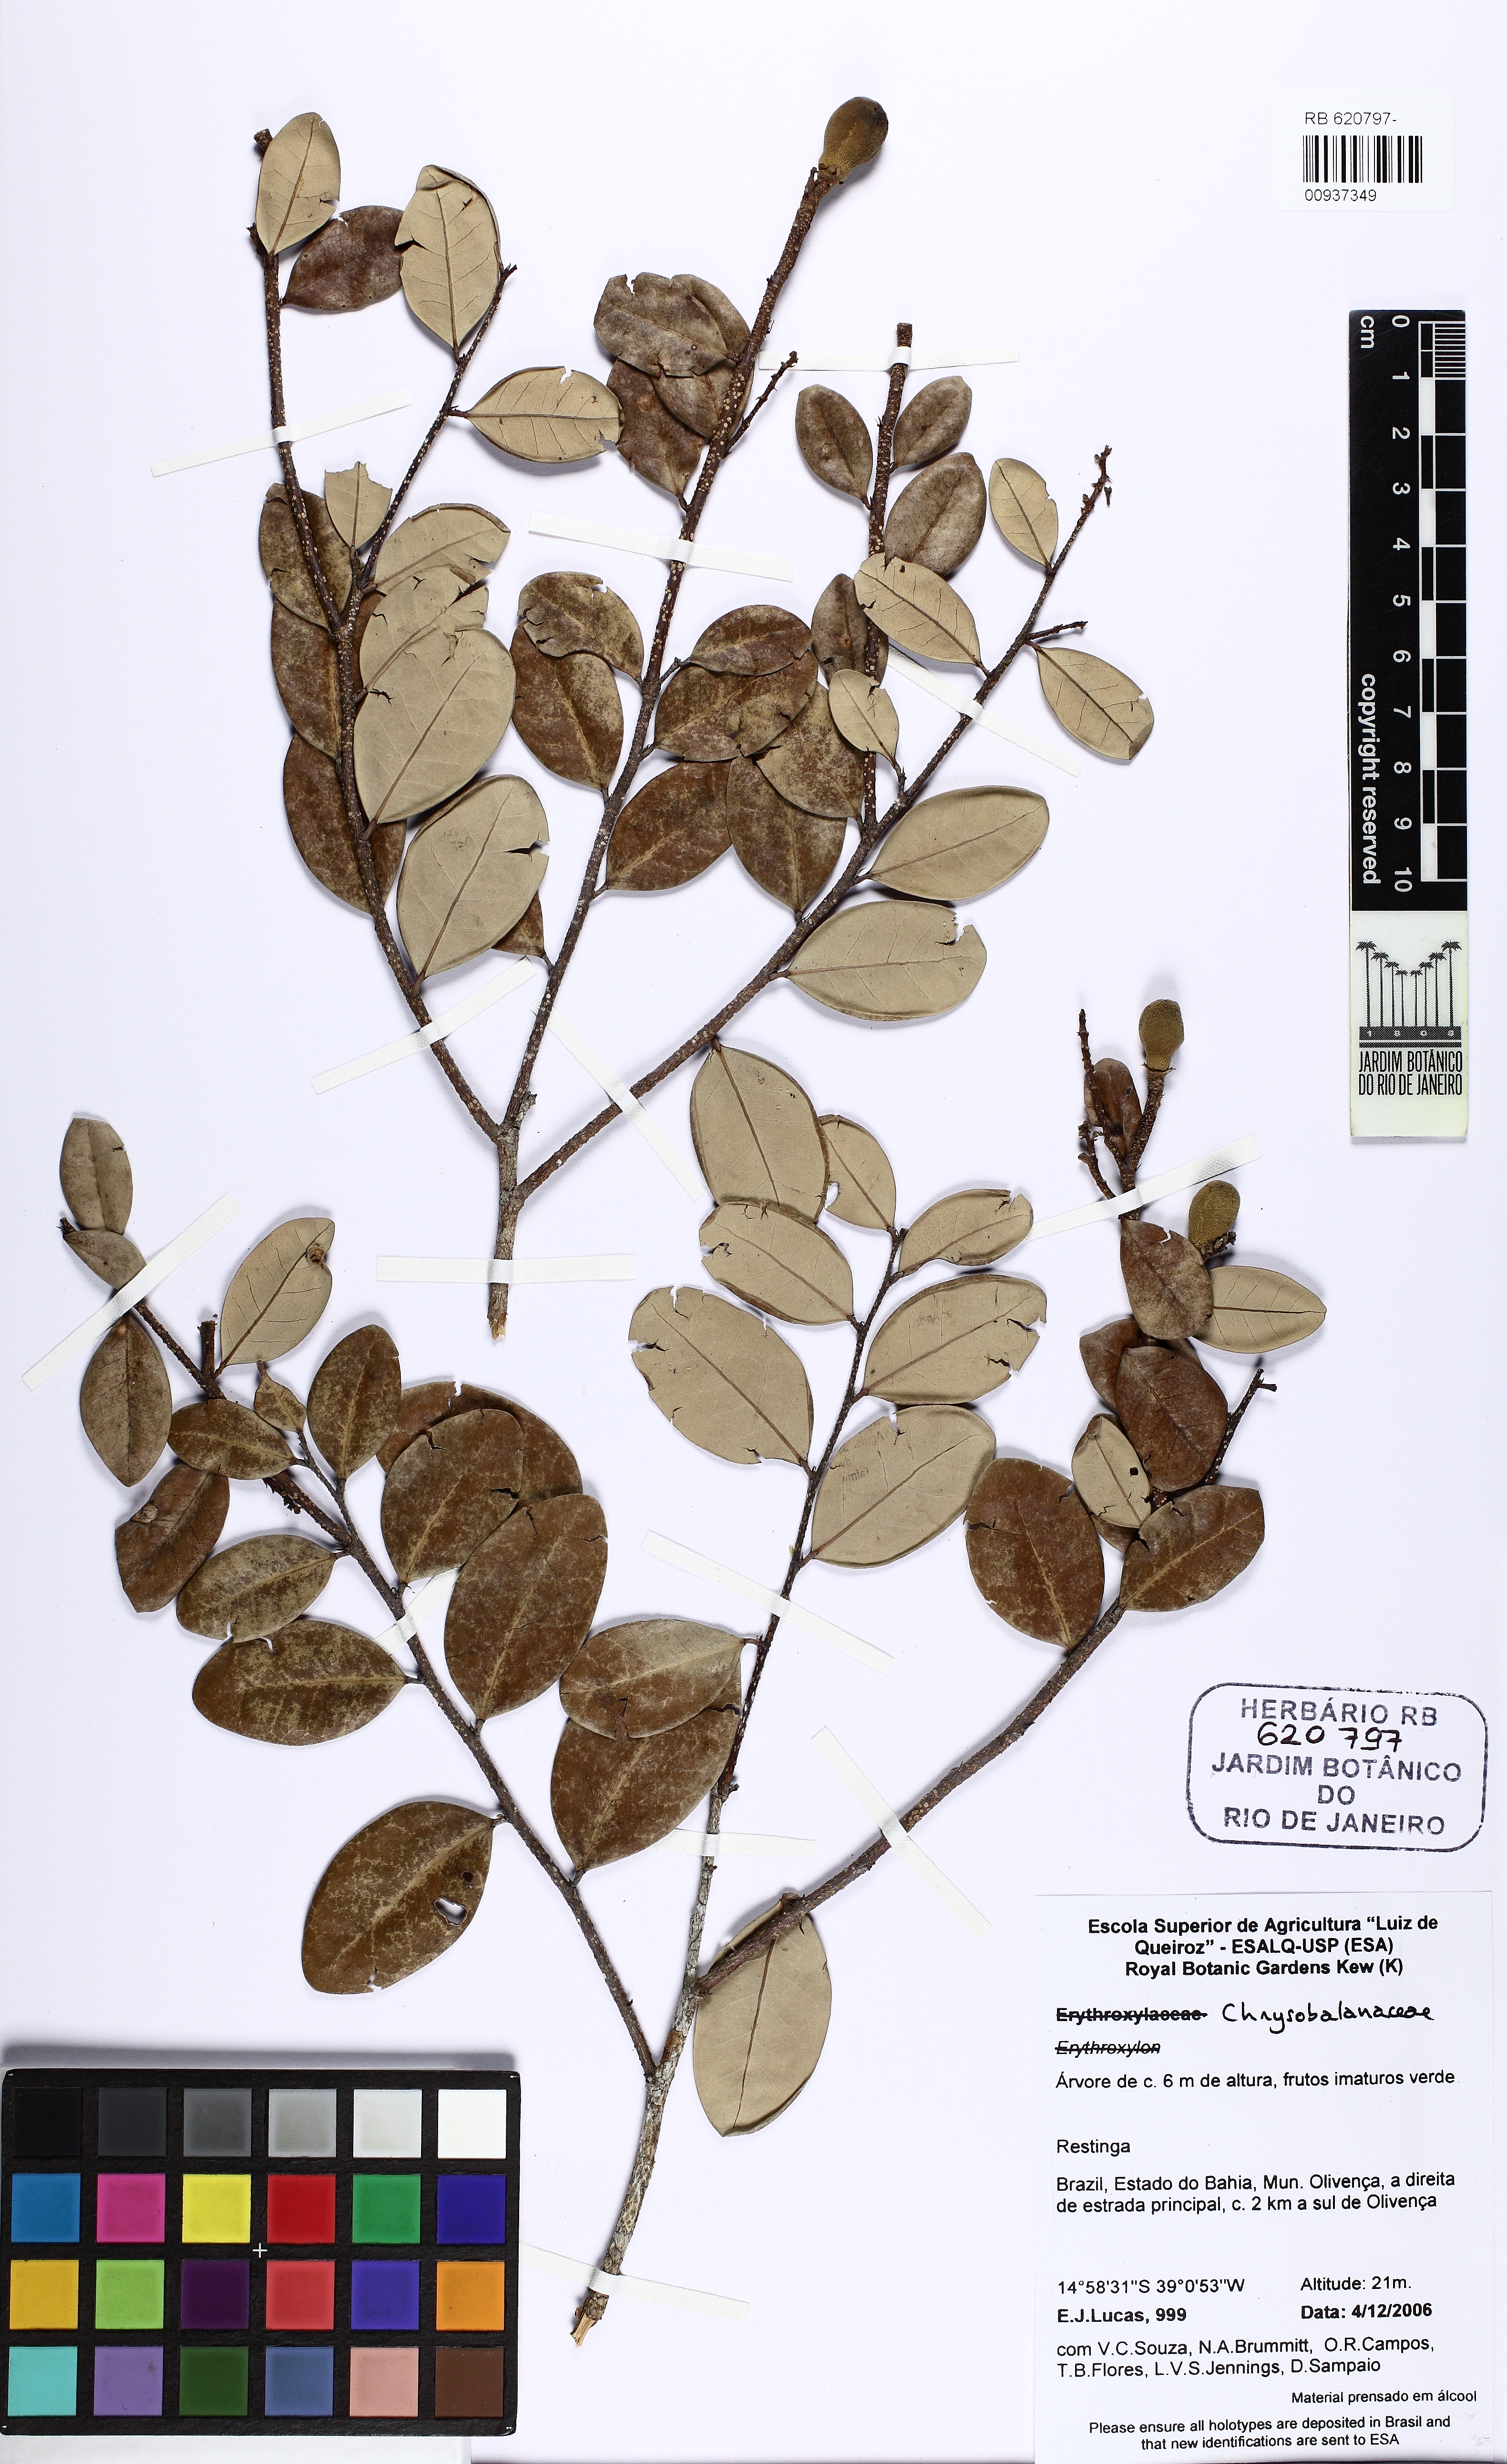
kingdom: Plantae
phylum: Tracheophyta
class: Magnoliopsida
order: Malpighiales
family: Chrysobalanaceae
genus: Licania
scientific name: Licania cymosa
